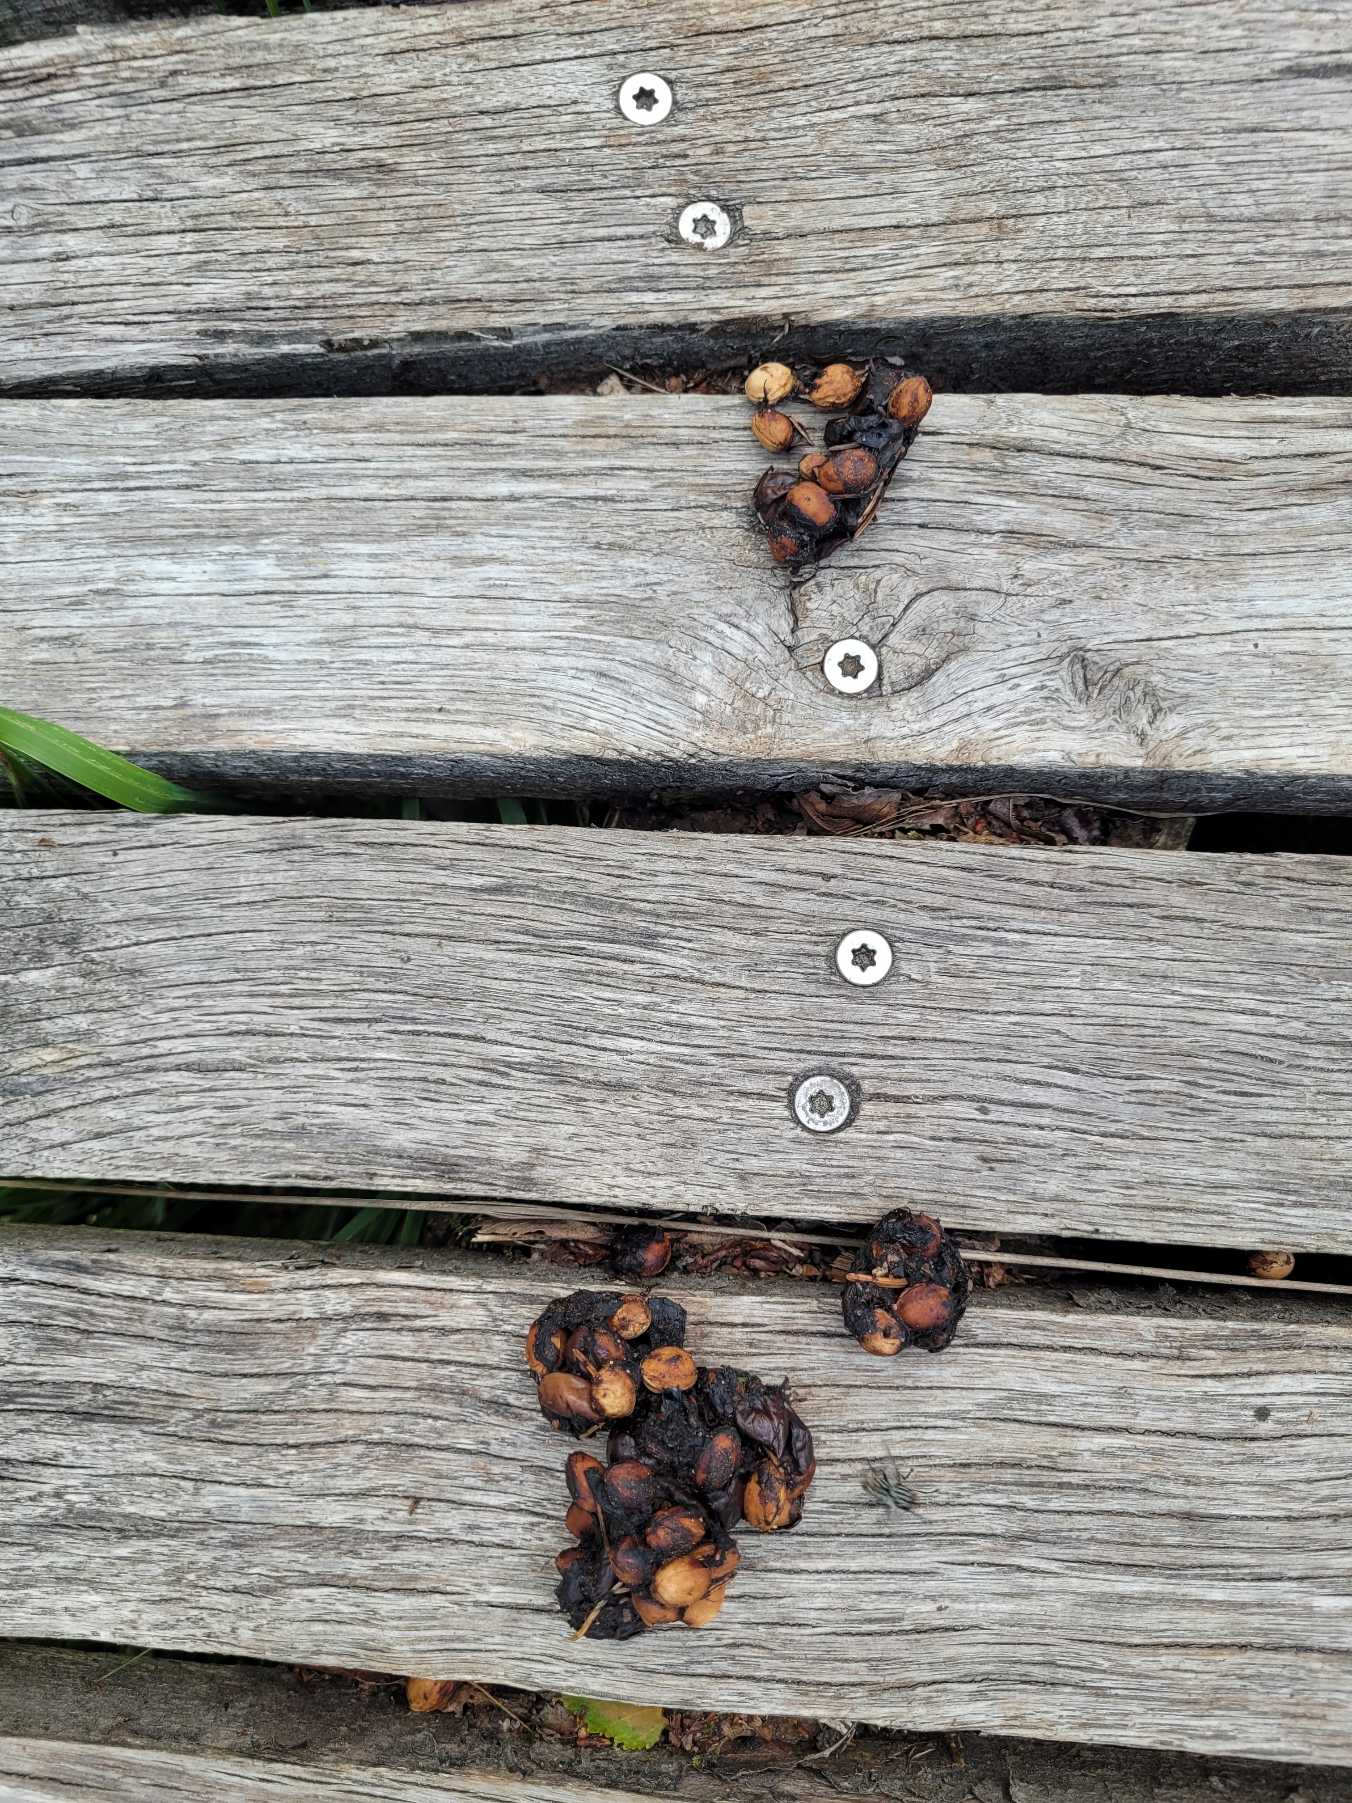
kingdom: Animalia
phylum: Chordata
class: Mammalia
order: Carnivora
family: Canidae
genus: Vulpes
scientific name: Vulpes vulpes
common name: Ræv
